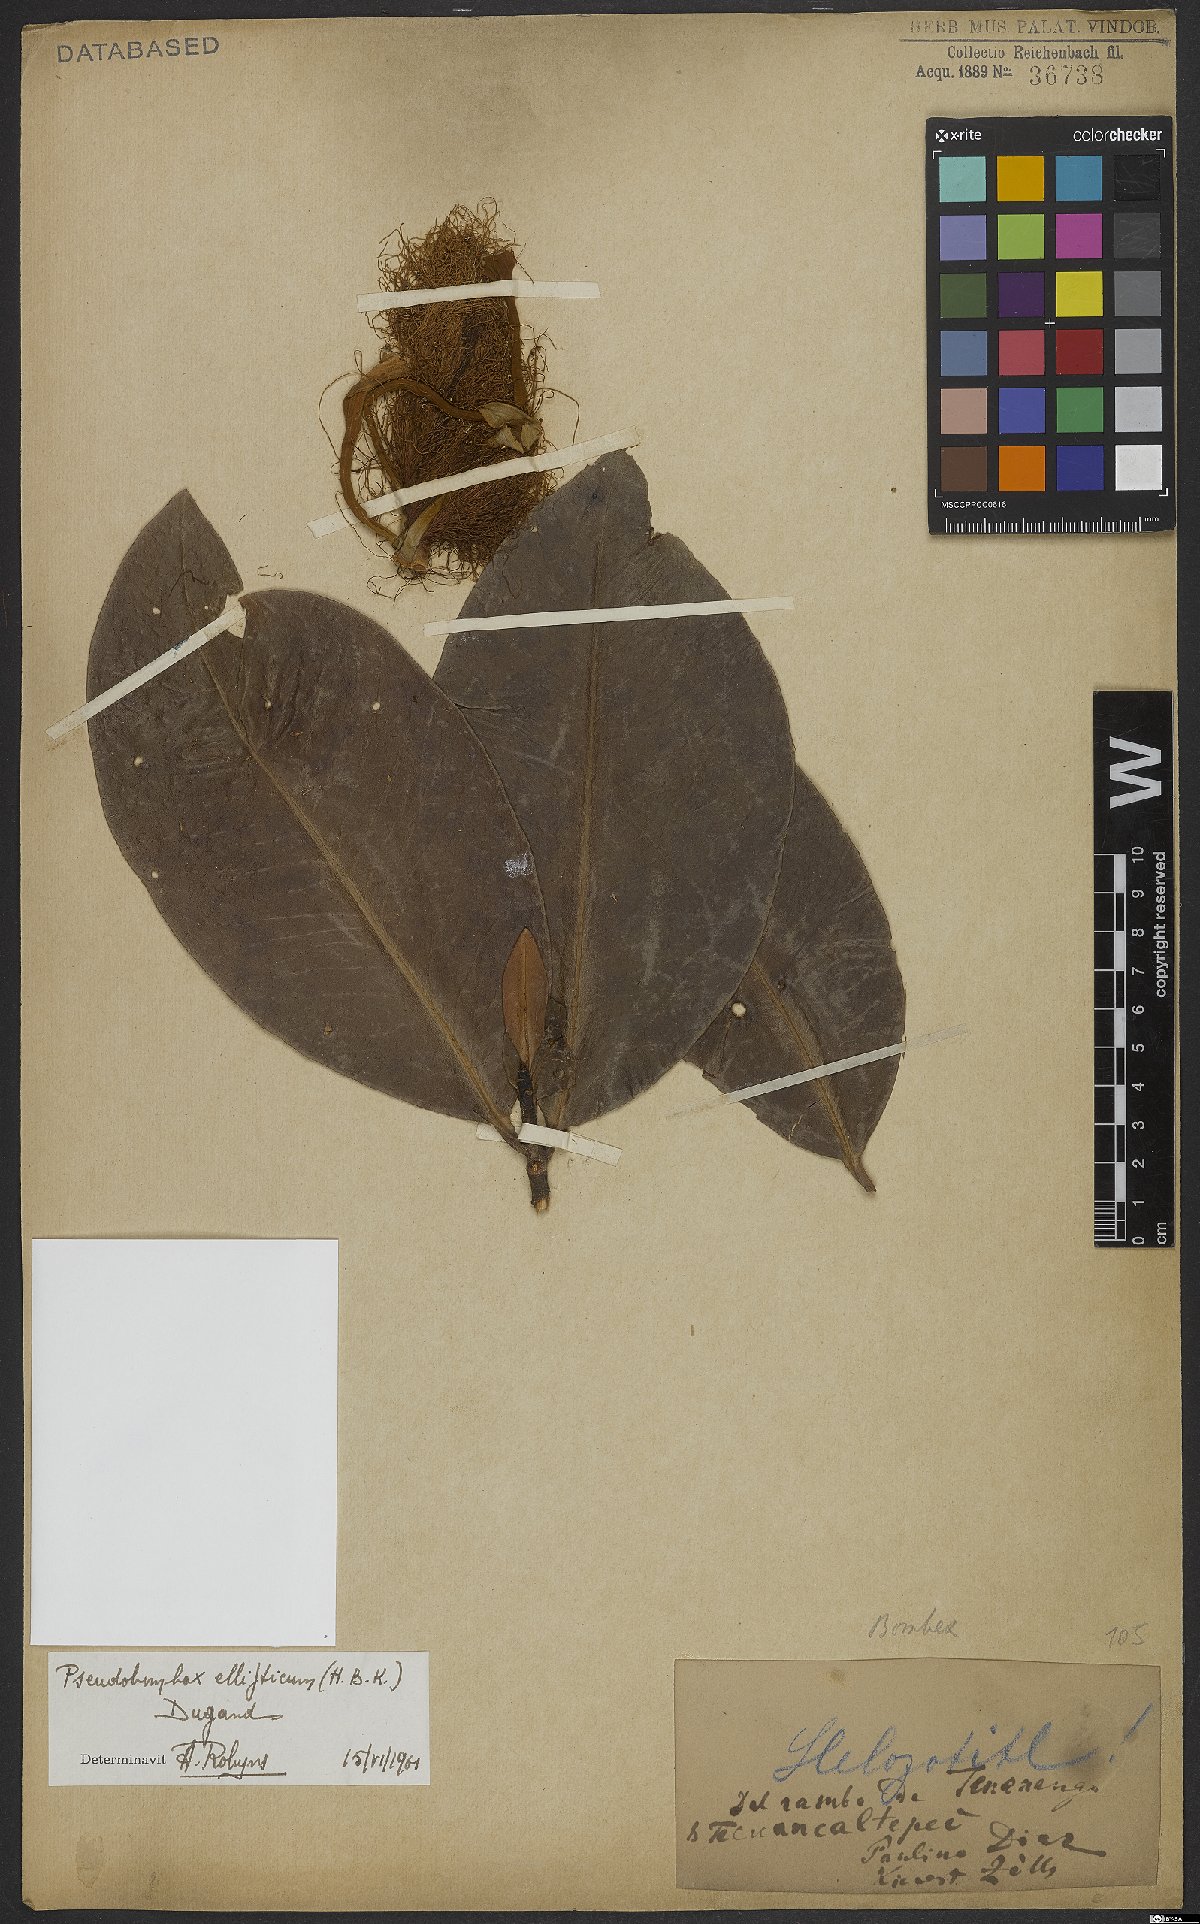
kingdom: Plantae
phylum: Tracheophyta
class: Magnoliopsida
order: Malvales
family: Malvaceae
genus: Pseudobombax
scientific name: Pseudobombax ellipticum
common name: Shaving-brush-tree
